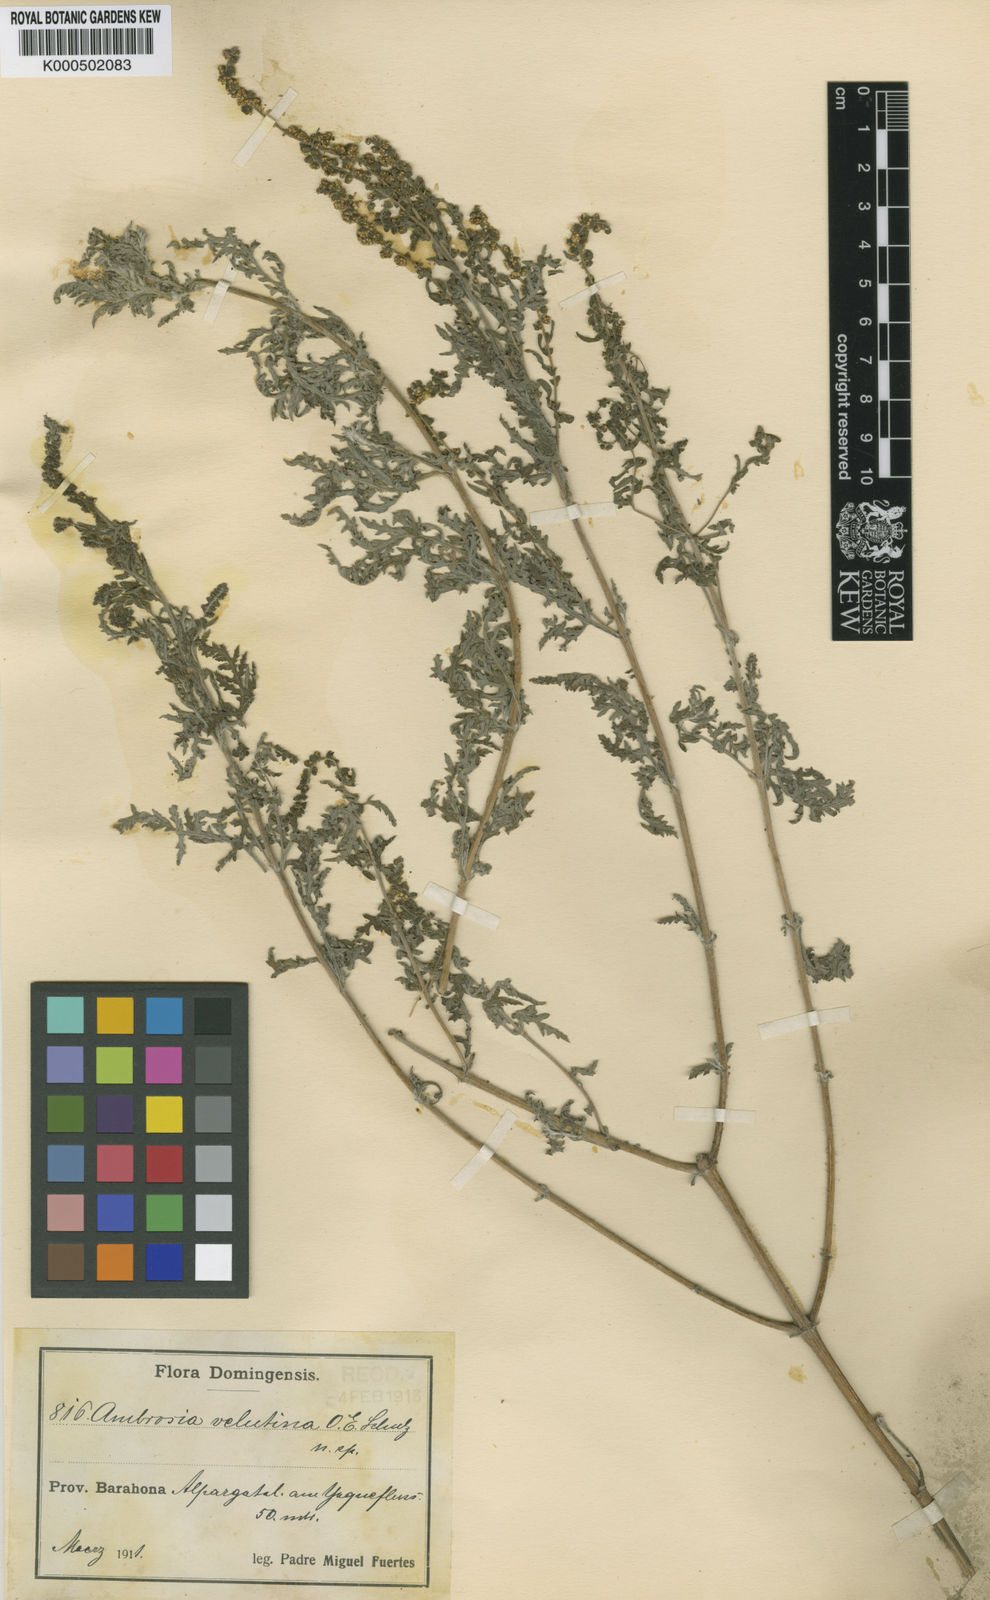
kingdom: Plantae
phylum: Tracheophyta
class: Magnoliopsida
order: Asterales
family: Asteraceae
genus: Ambrosia
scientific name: Ambrosia velutina
